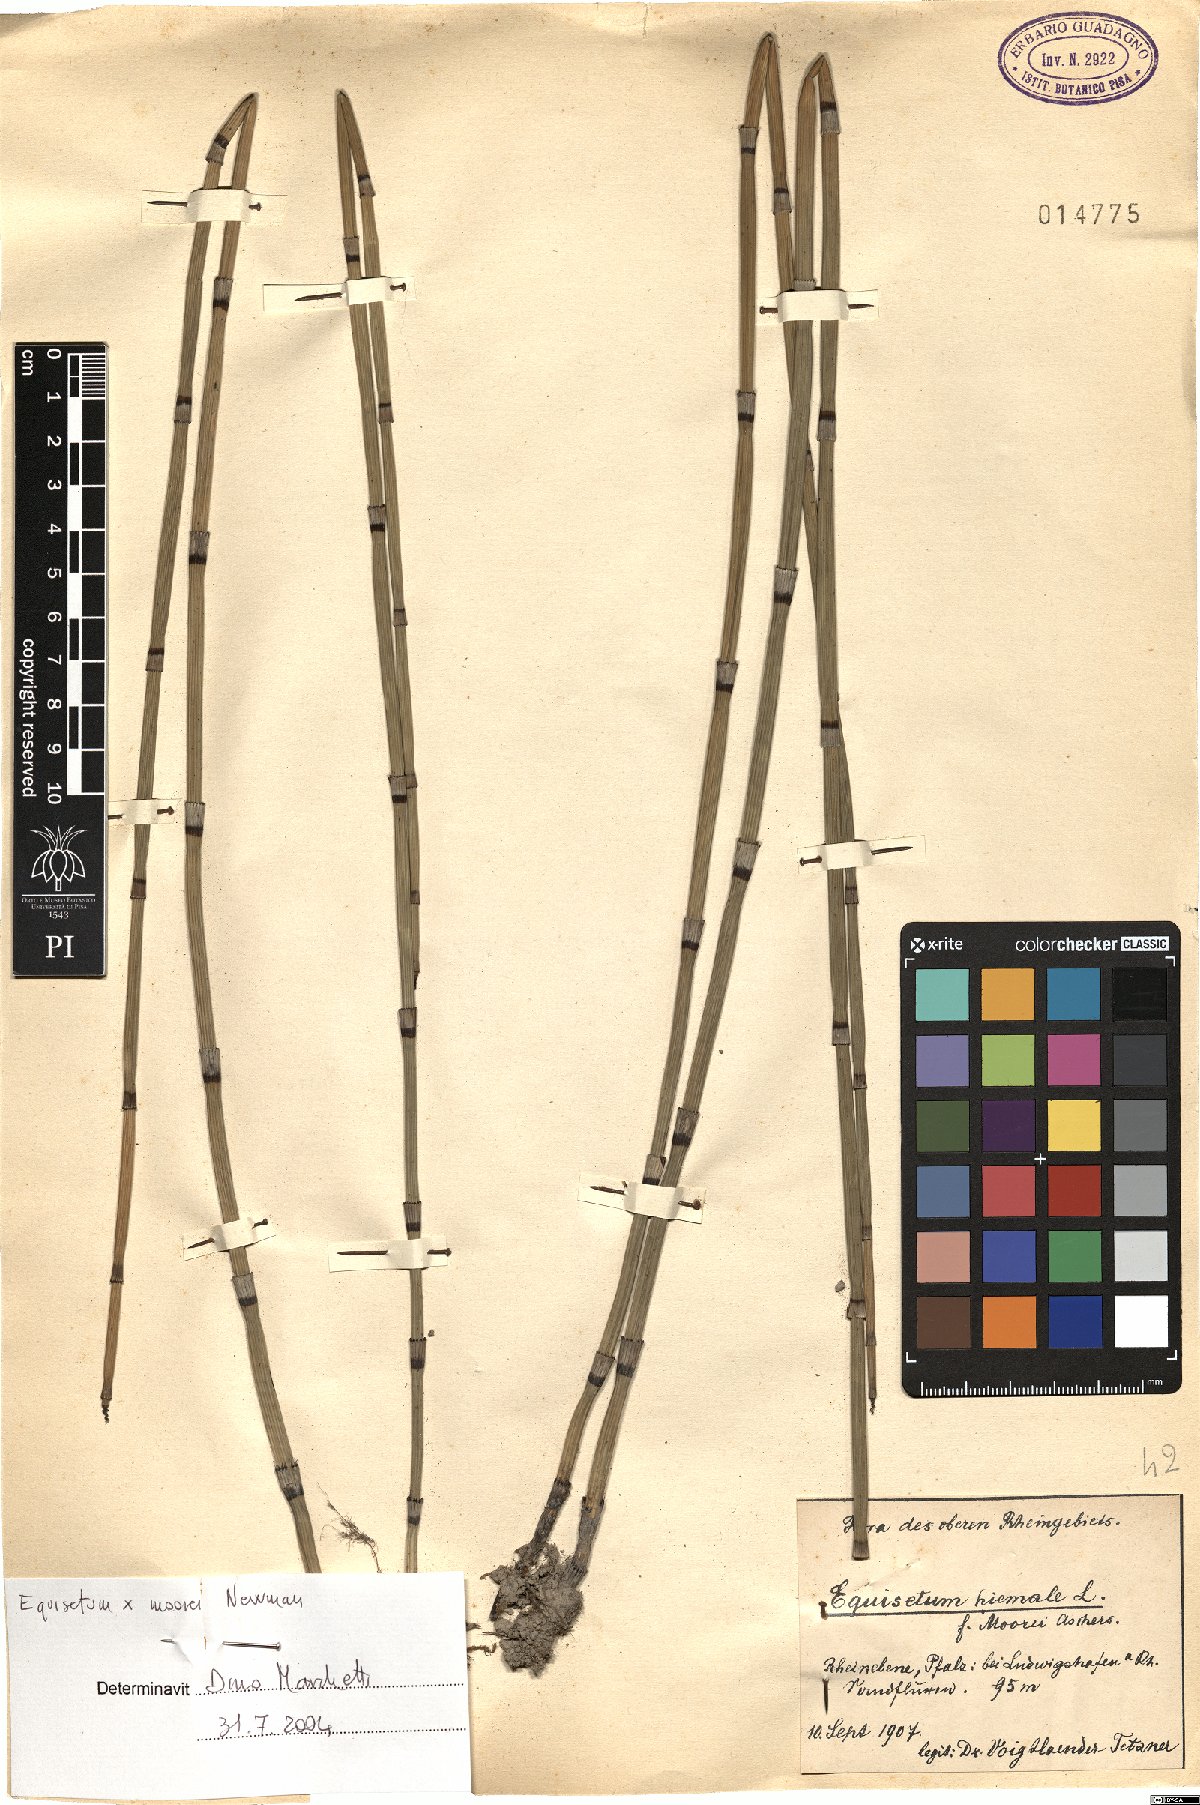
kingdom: Plantae
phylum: Tracheophyta
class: Polypodiopsida
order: Equisetales
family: Equisetaceae
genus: Equisetum
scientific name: Equisetum moorei
